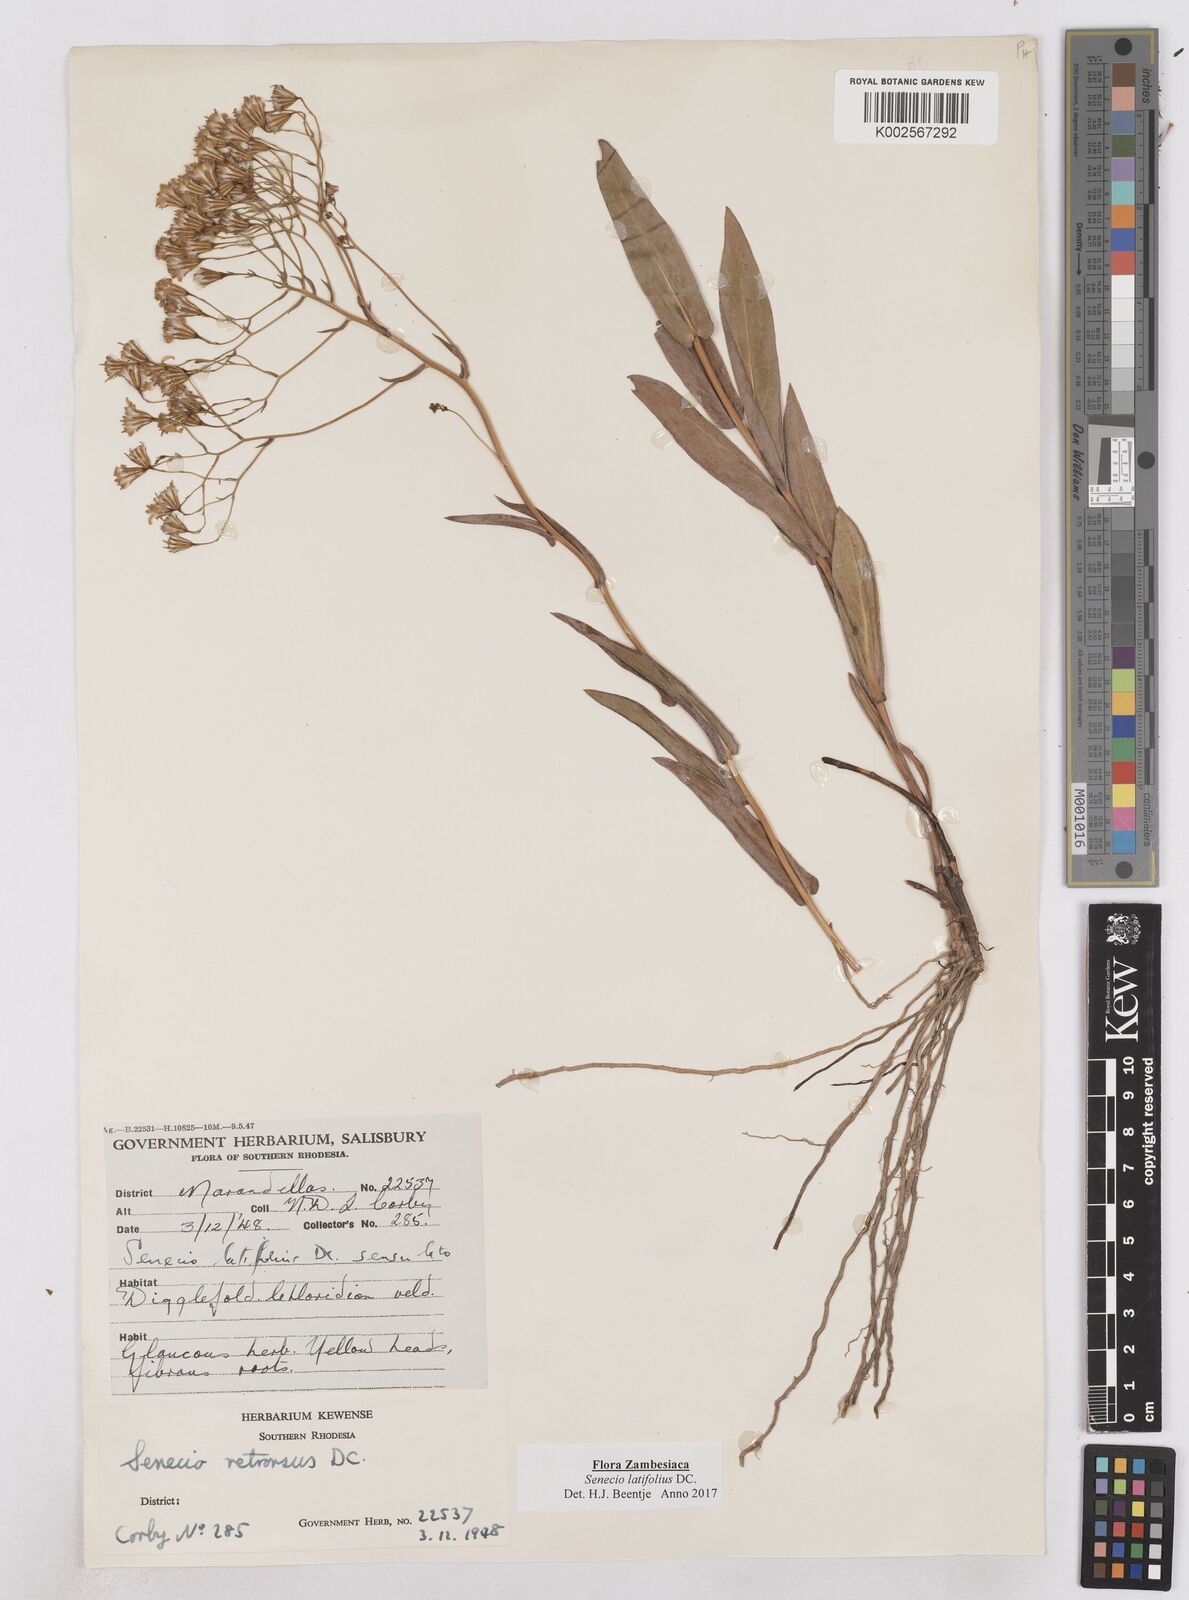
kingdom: Plantae
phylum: Tracheophyta
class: Magnoliopsida
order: Asterales
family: Asteraceae
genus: Senecio
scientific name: Senecio latifolius
